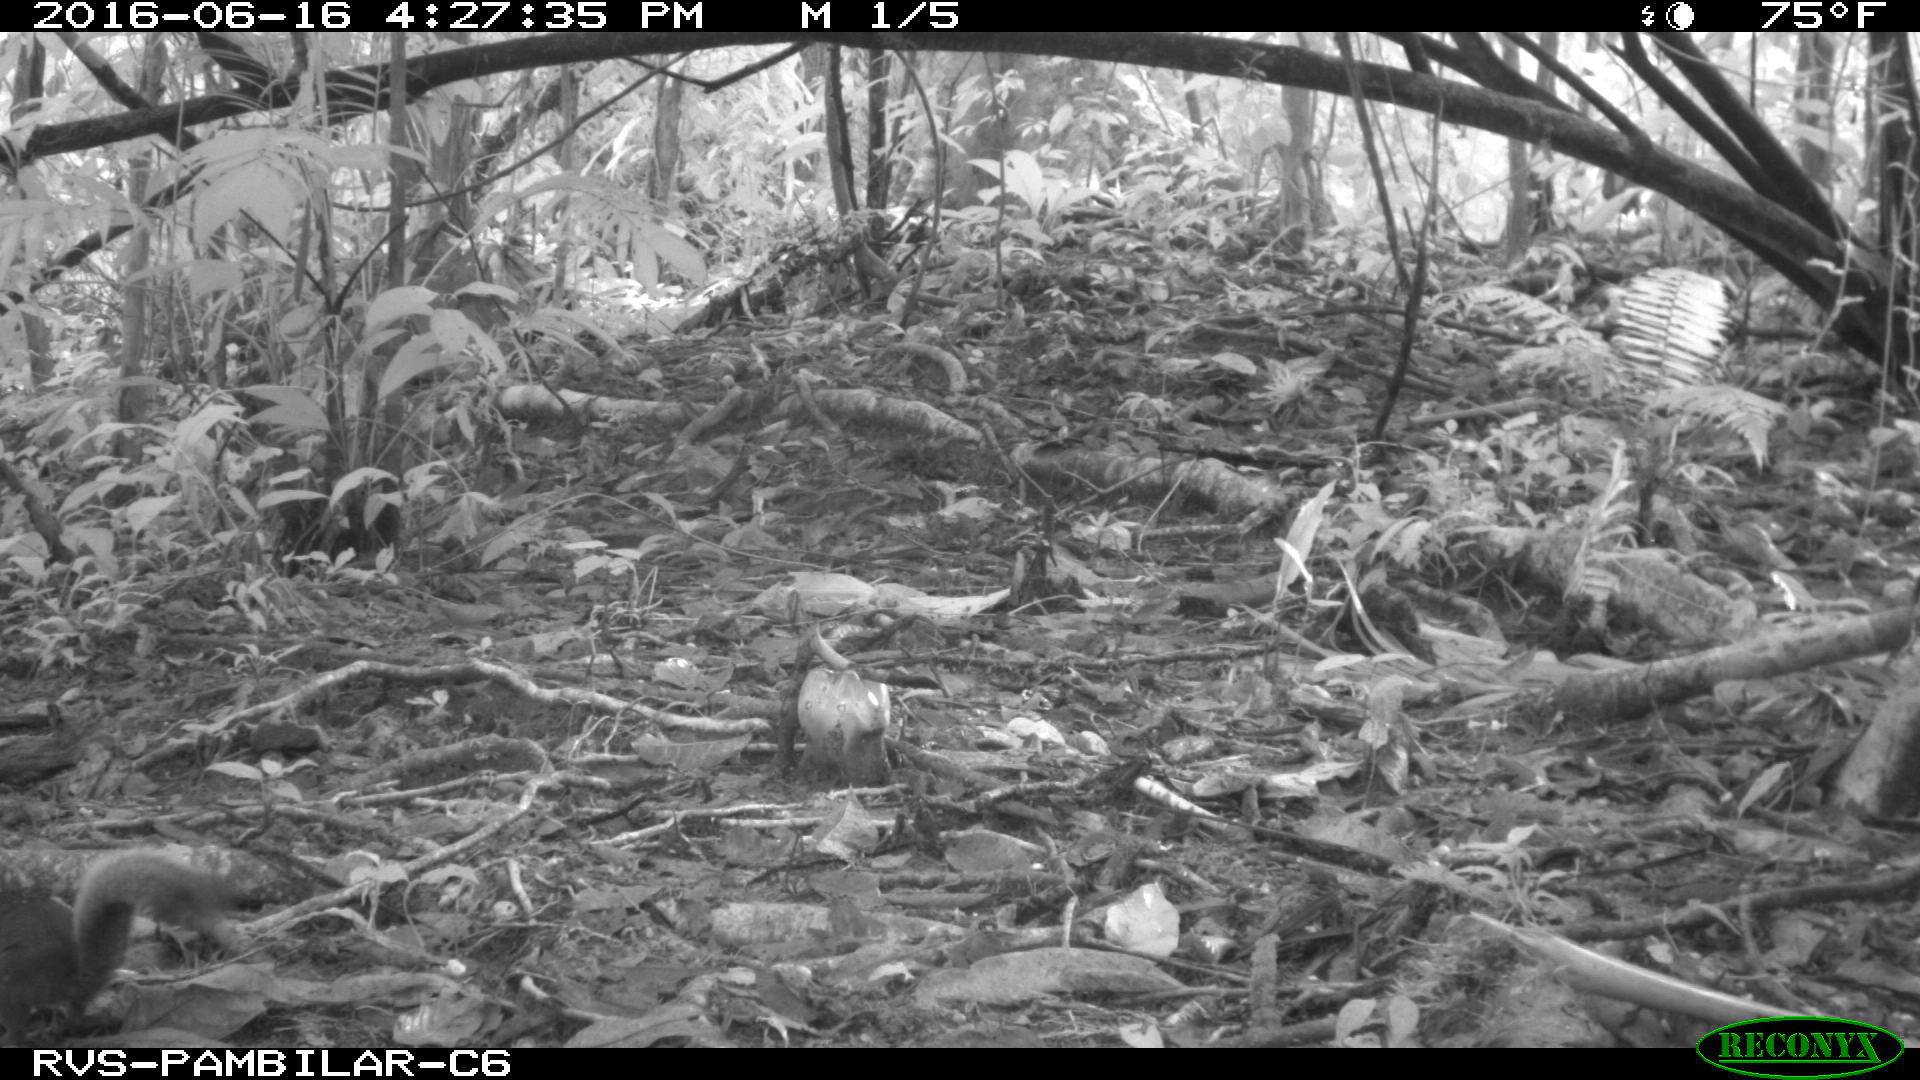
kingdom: Animalia
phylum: Chordata
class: Mammalia
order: Rodentia
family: Sciuridae
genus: Sciurus
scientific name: Sciurus granatensis
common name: Red-tailed squirrel
